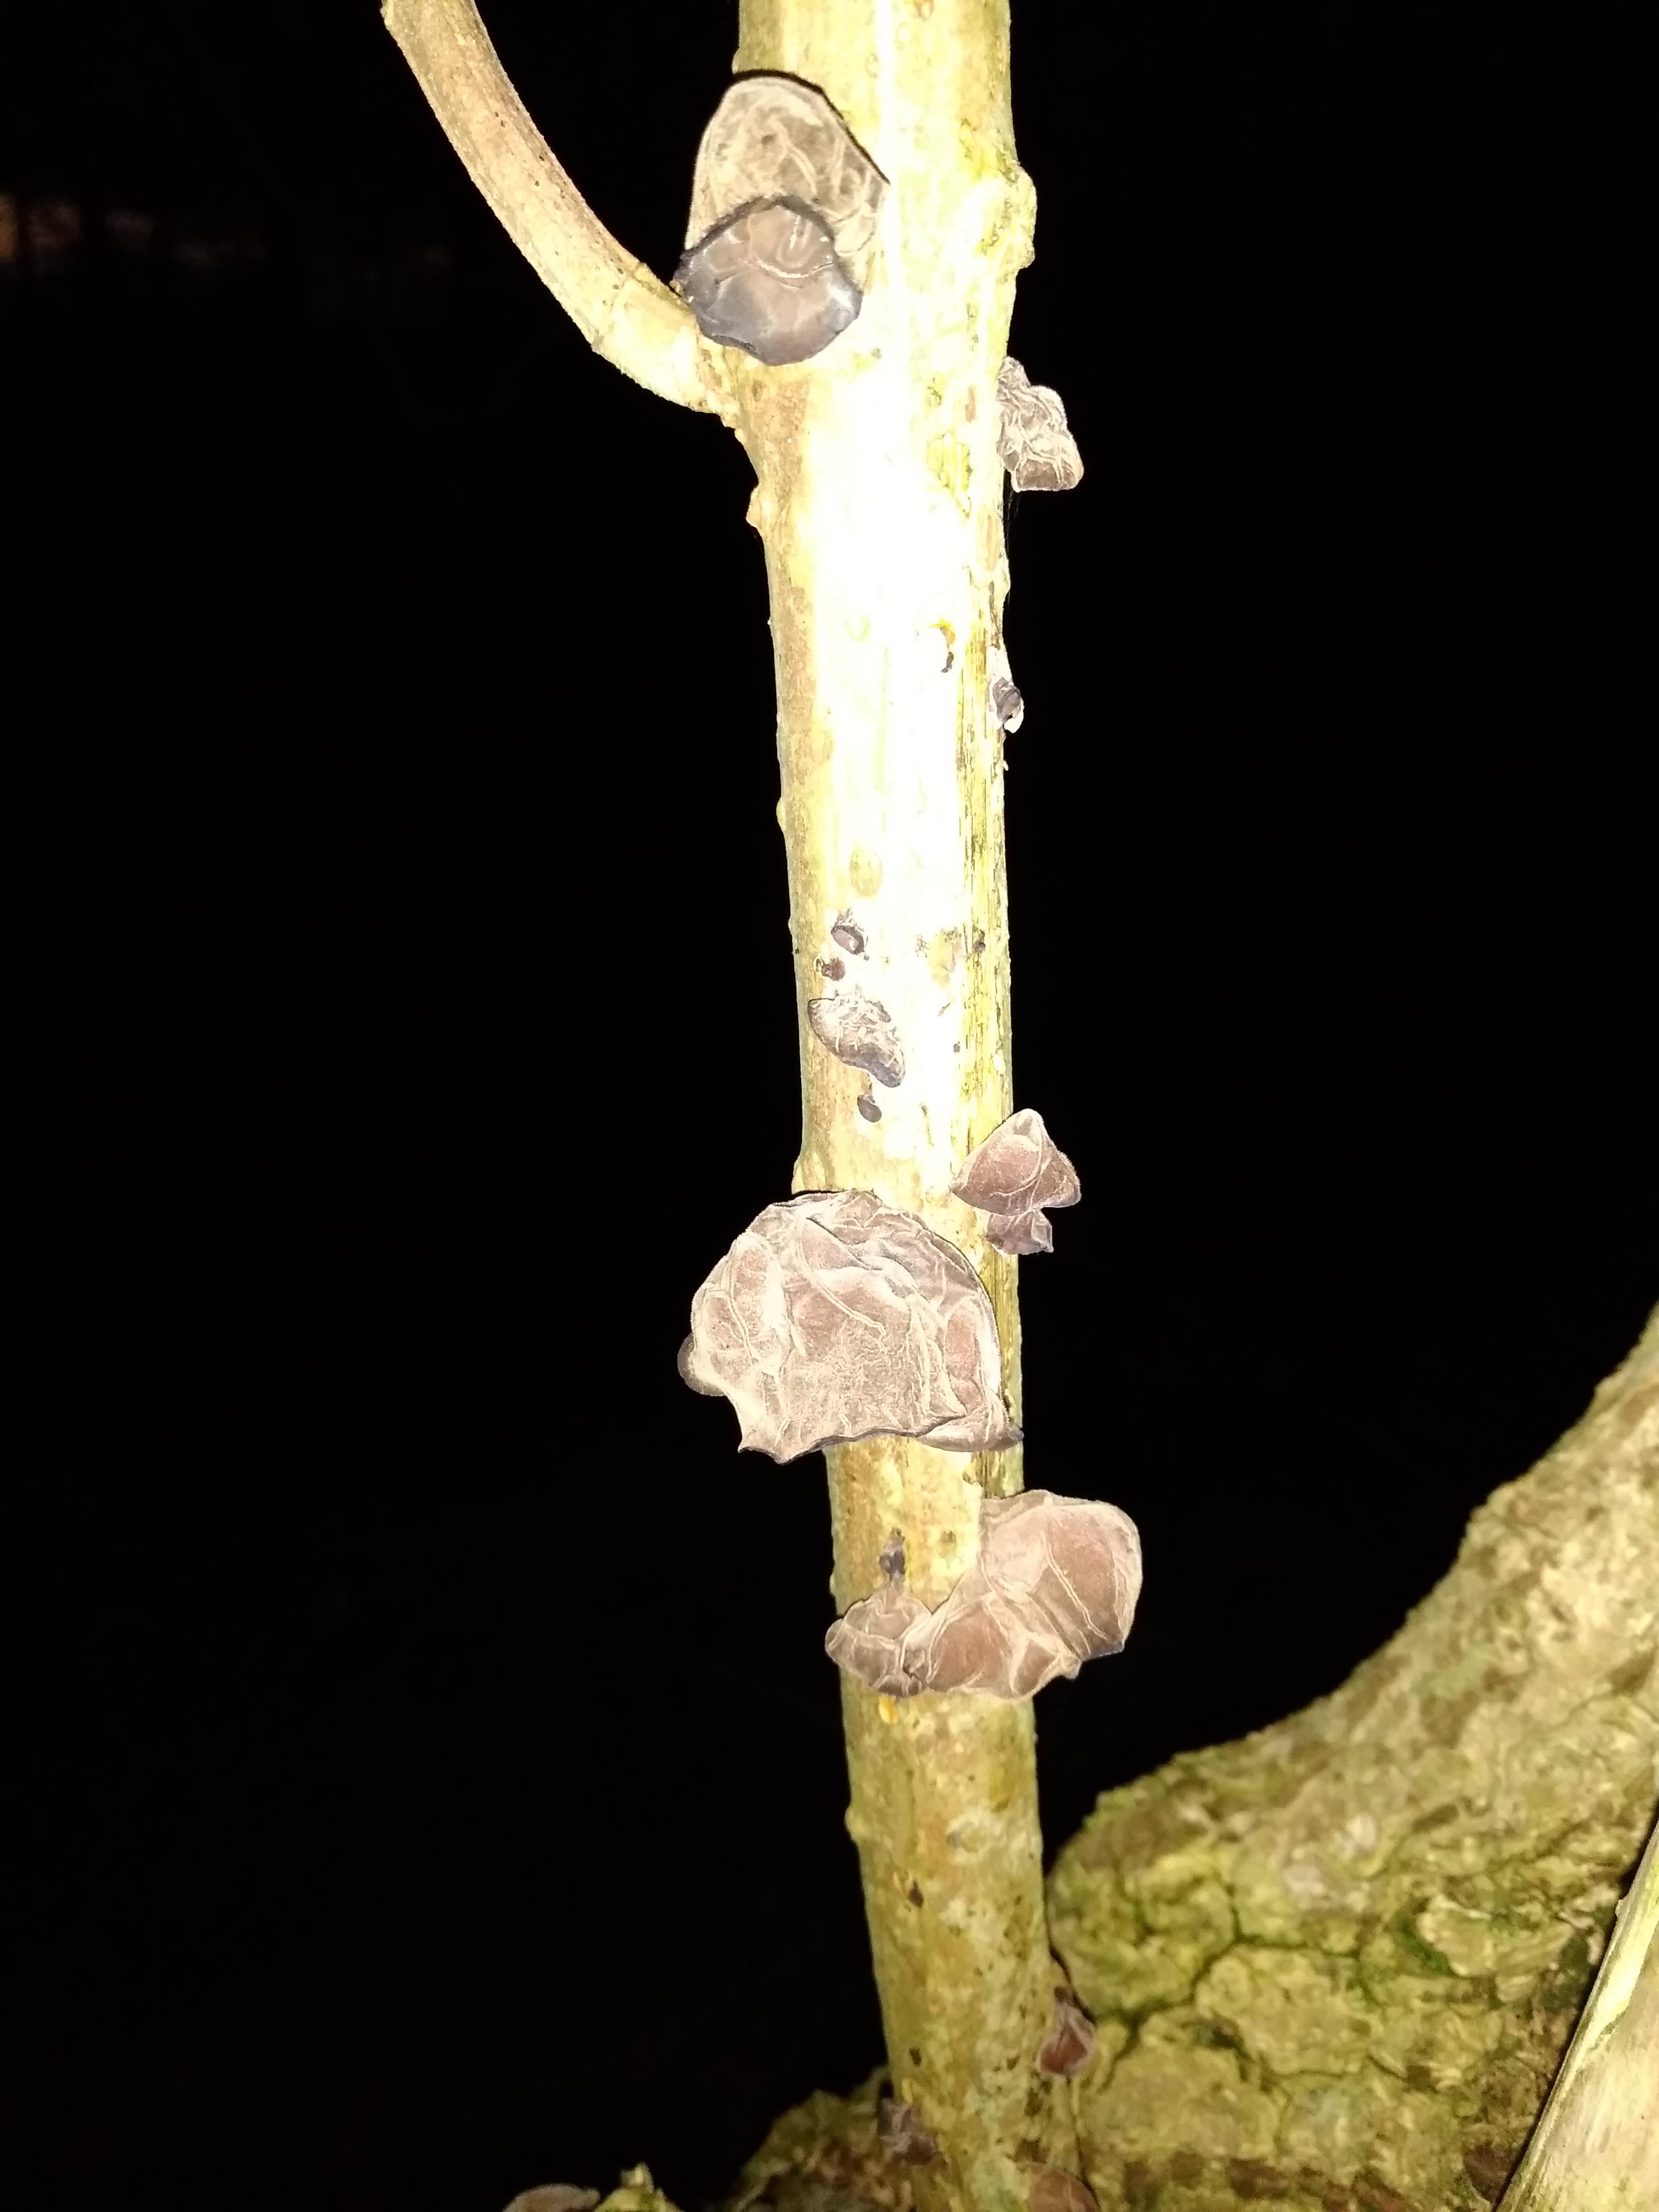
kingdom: Fungi
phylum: Basidiomycota
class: Agaricomycetes
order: Auriculariales
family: Auriculariaceae
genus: Auricularia
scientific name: Auricularia auricula-judae
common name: almindelig judasøre
